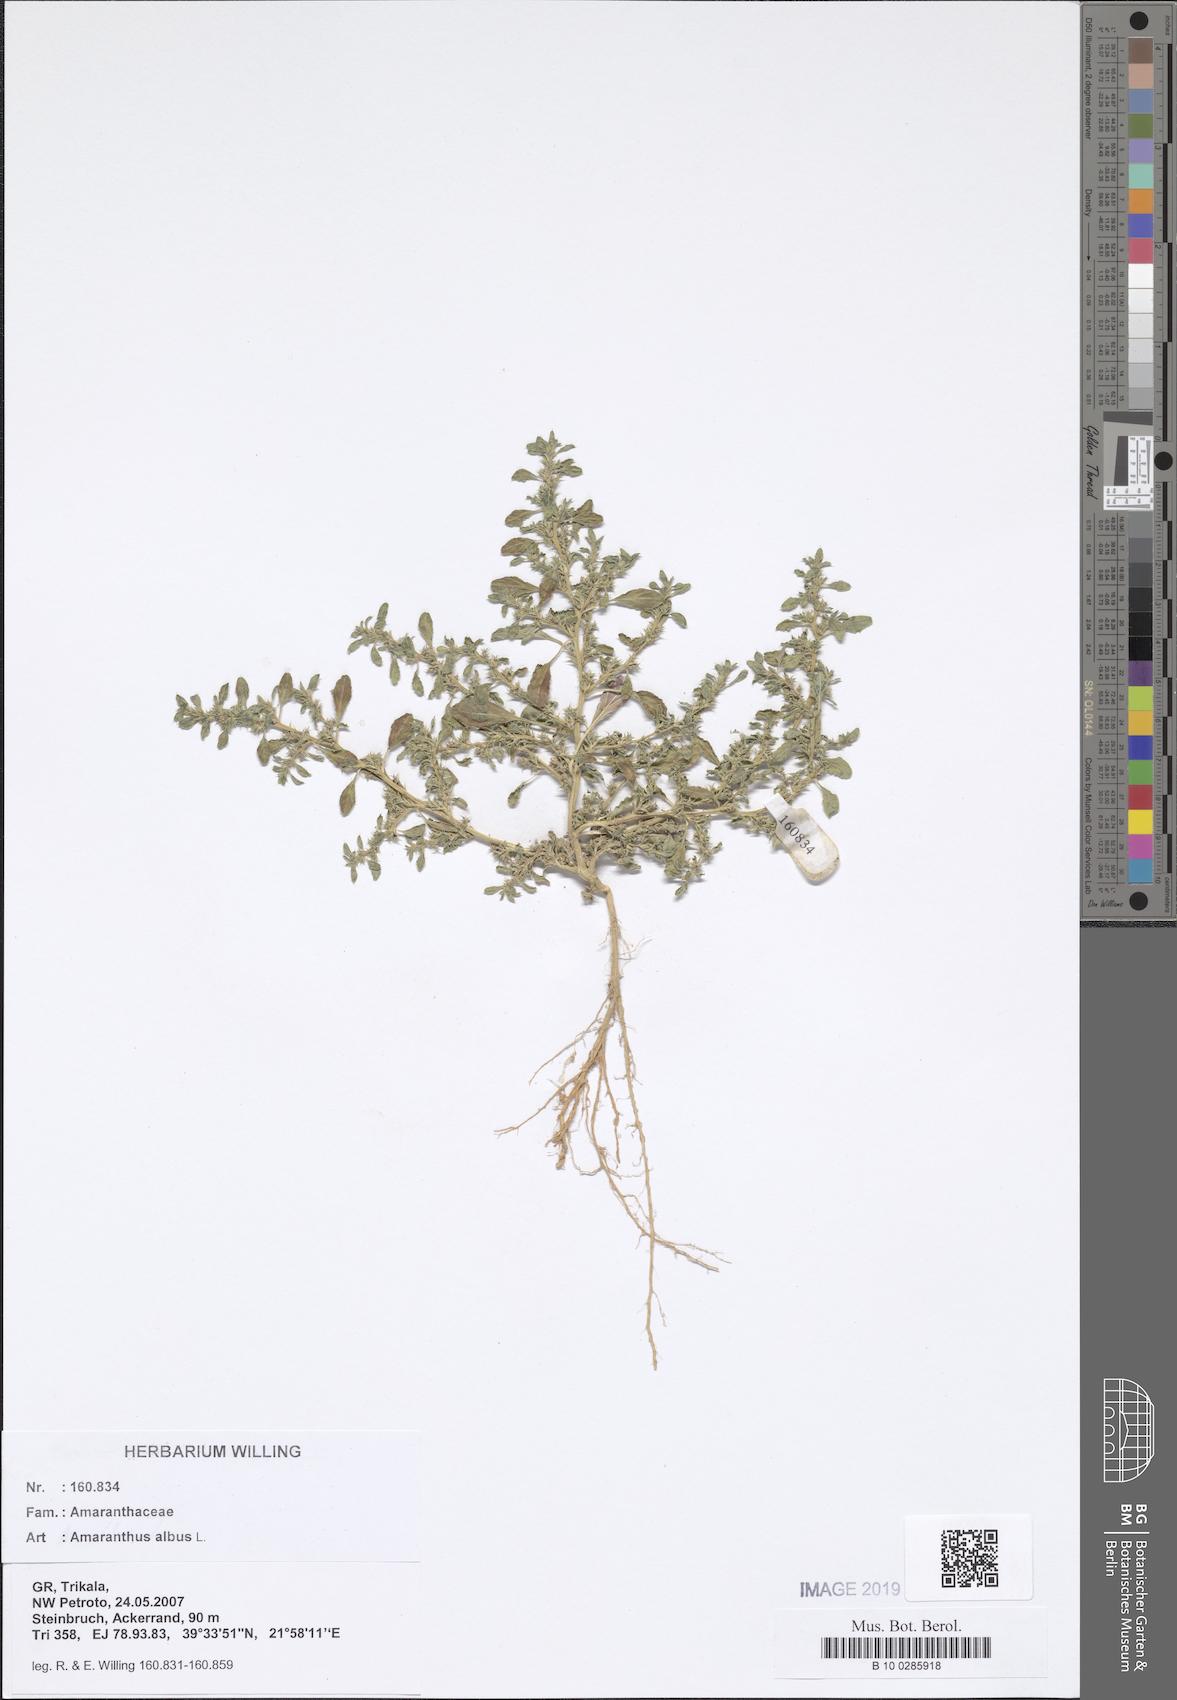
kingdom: Plantae
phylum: Tracheophyta
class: Magnoliopsida
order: Caryophyllales
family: Amaranthaceae
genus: Amaranthus
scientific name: Amaranthus albus
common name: White pigweed
